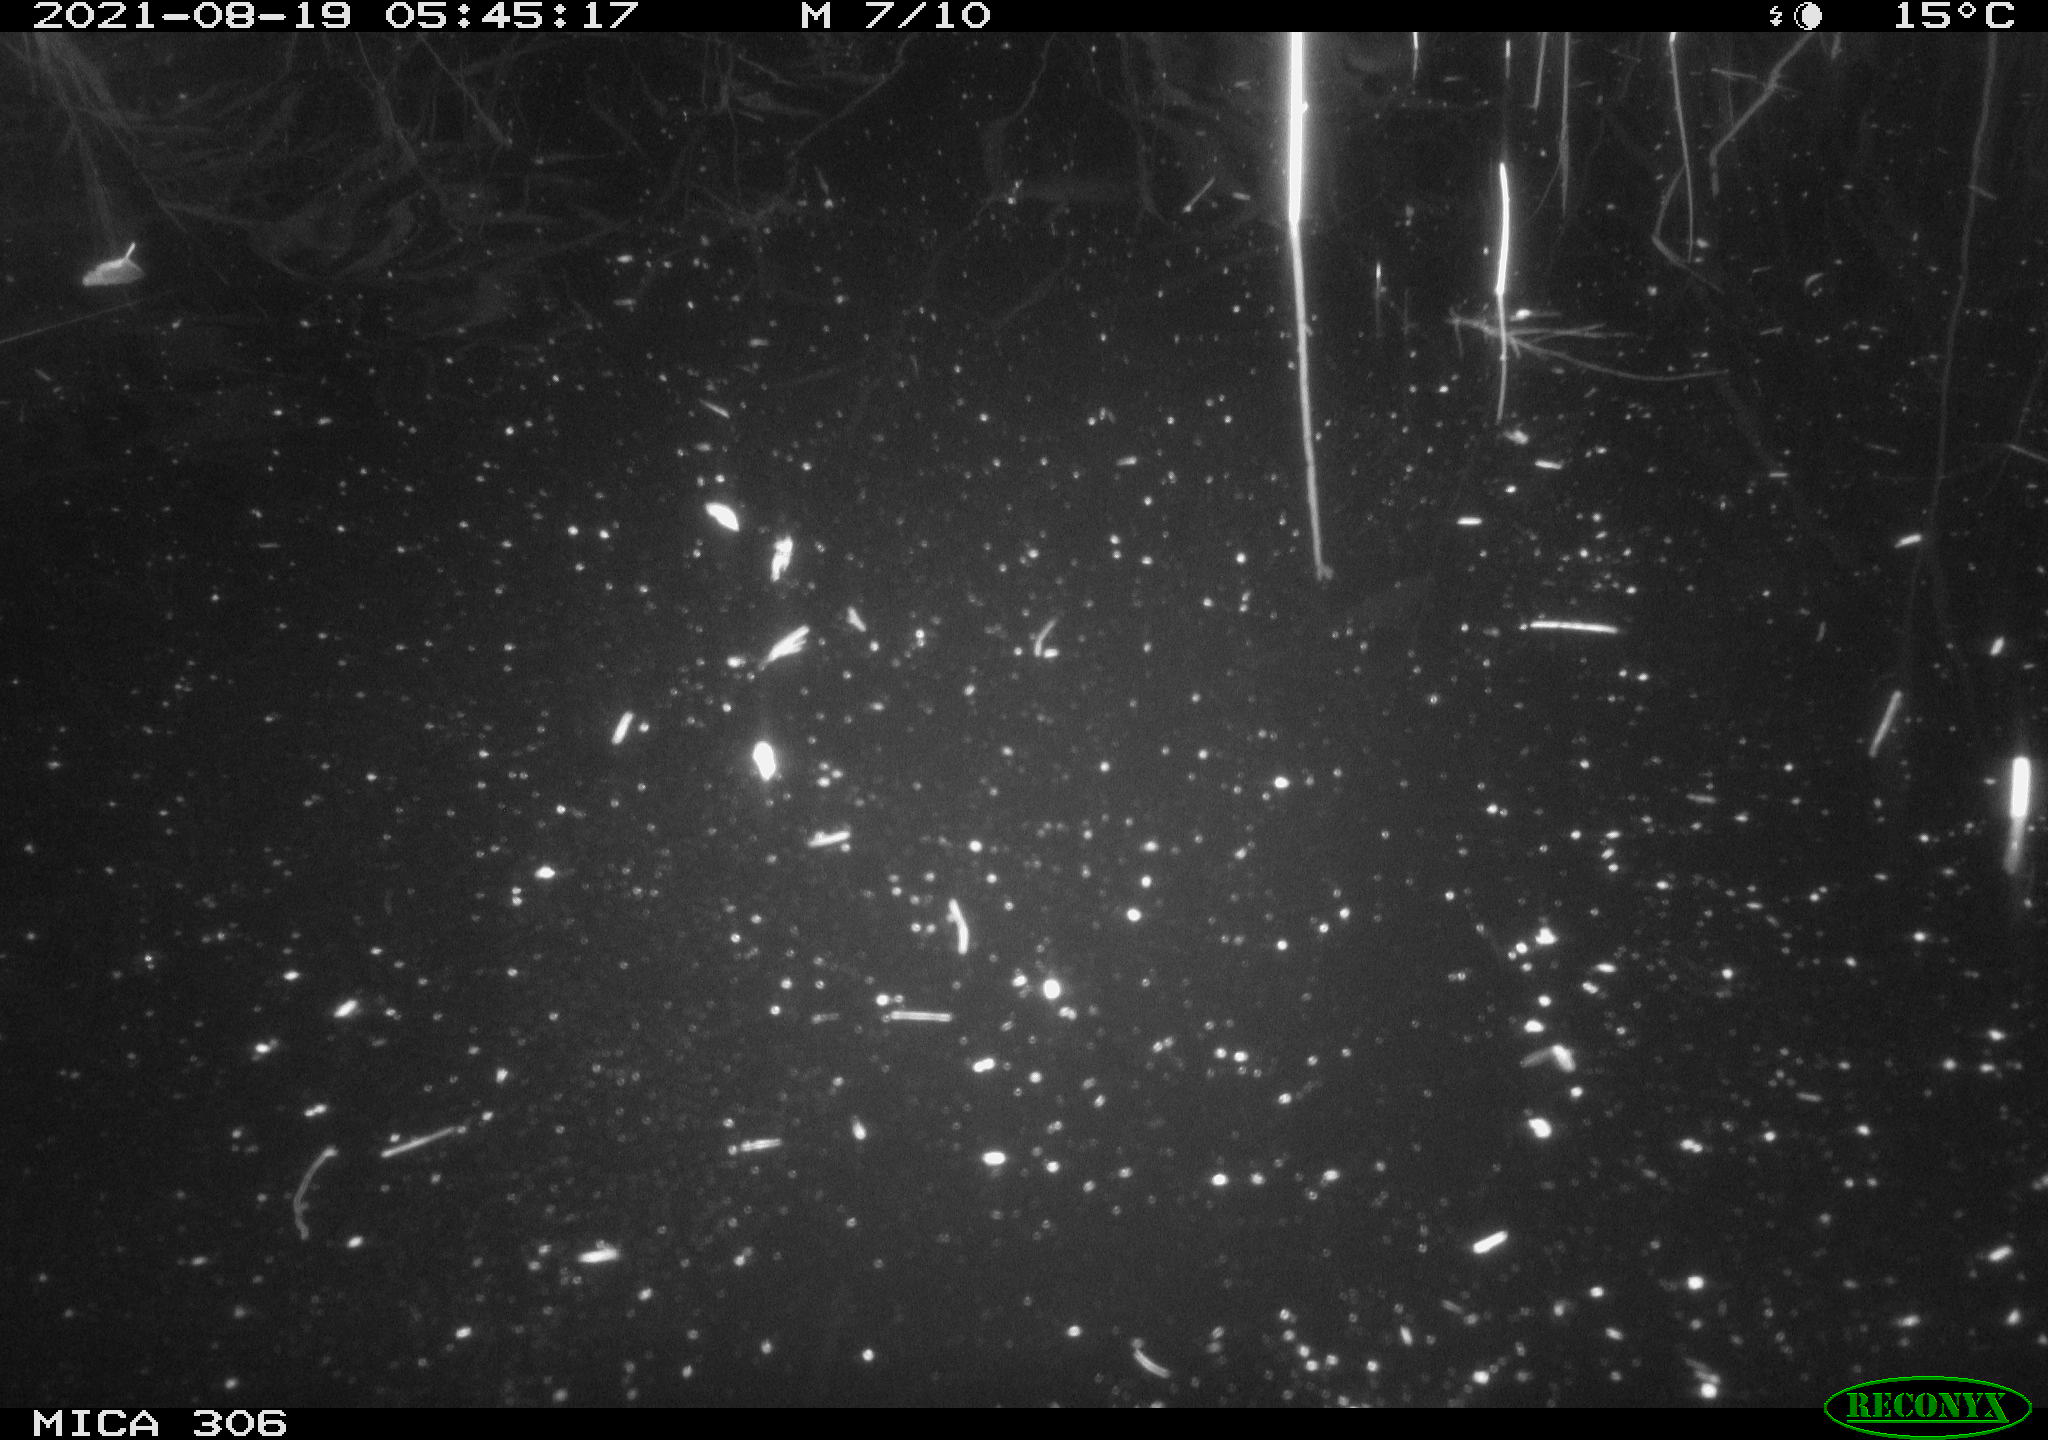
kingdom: Animalia
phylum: Chordata
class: Aves
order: Anseriformes
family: Anatidae
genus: Anas
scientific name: Anas platyrhynchos
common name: Mallard
